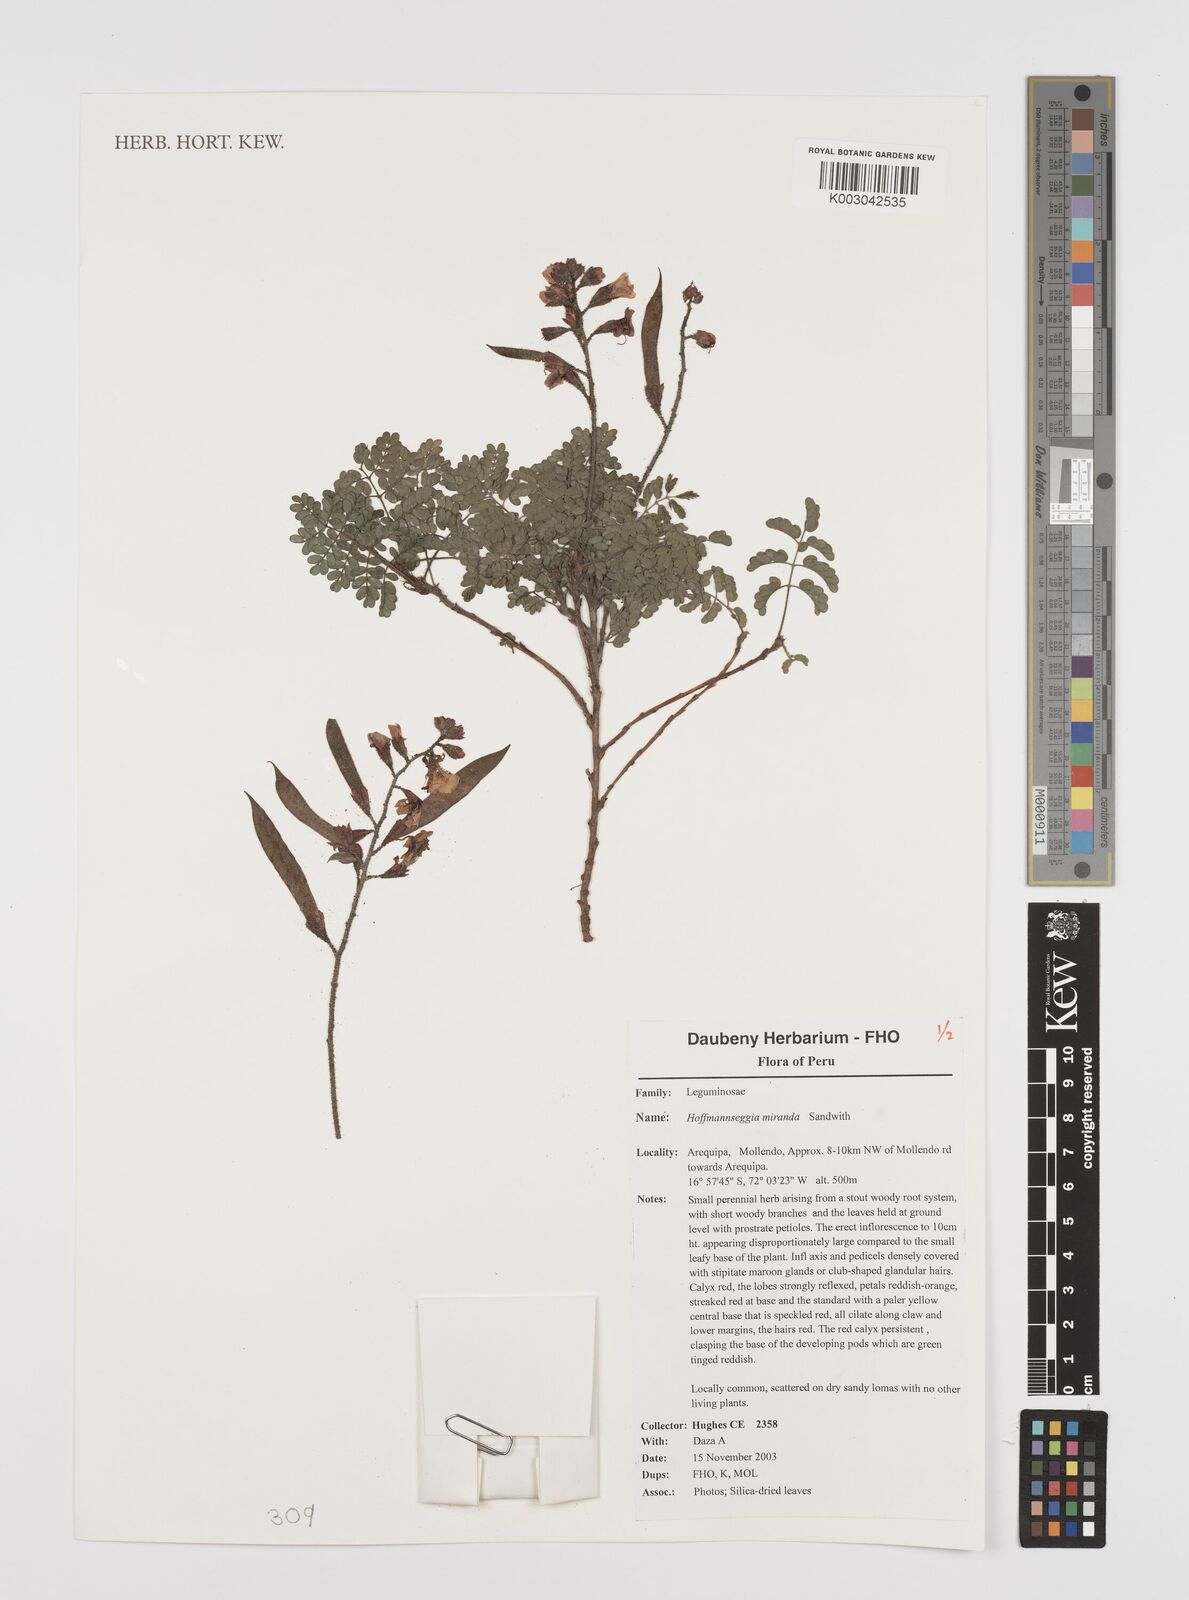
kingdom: Plantae
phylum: Tracheophyta
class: Magnoliopsida
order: Fabales
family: Fabaceae
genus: Hoffmannseggia
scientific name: Hoffmannseggia miranda
